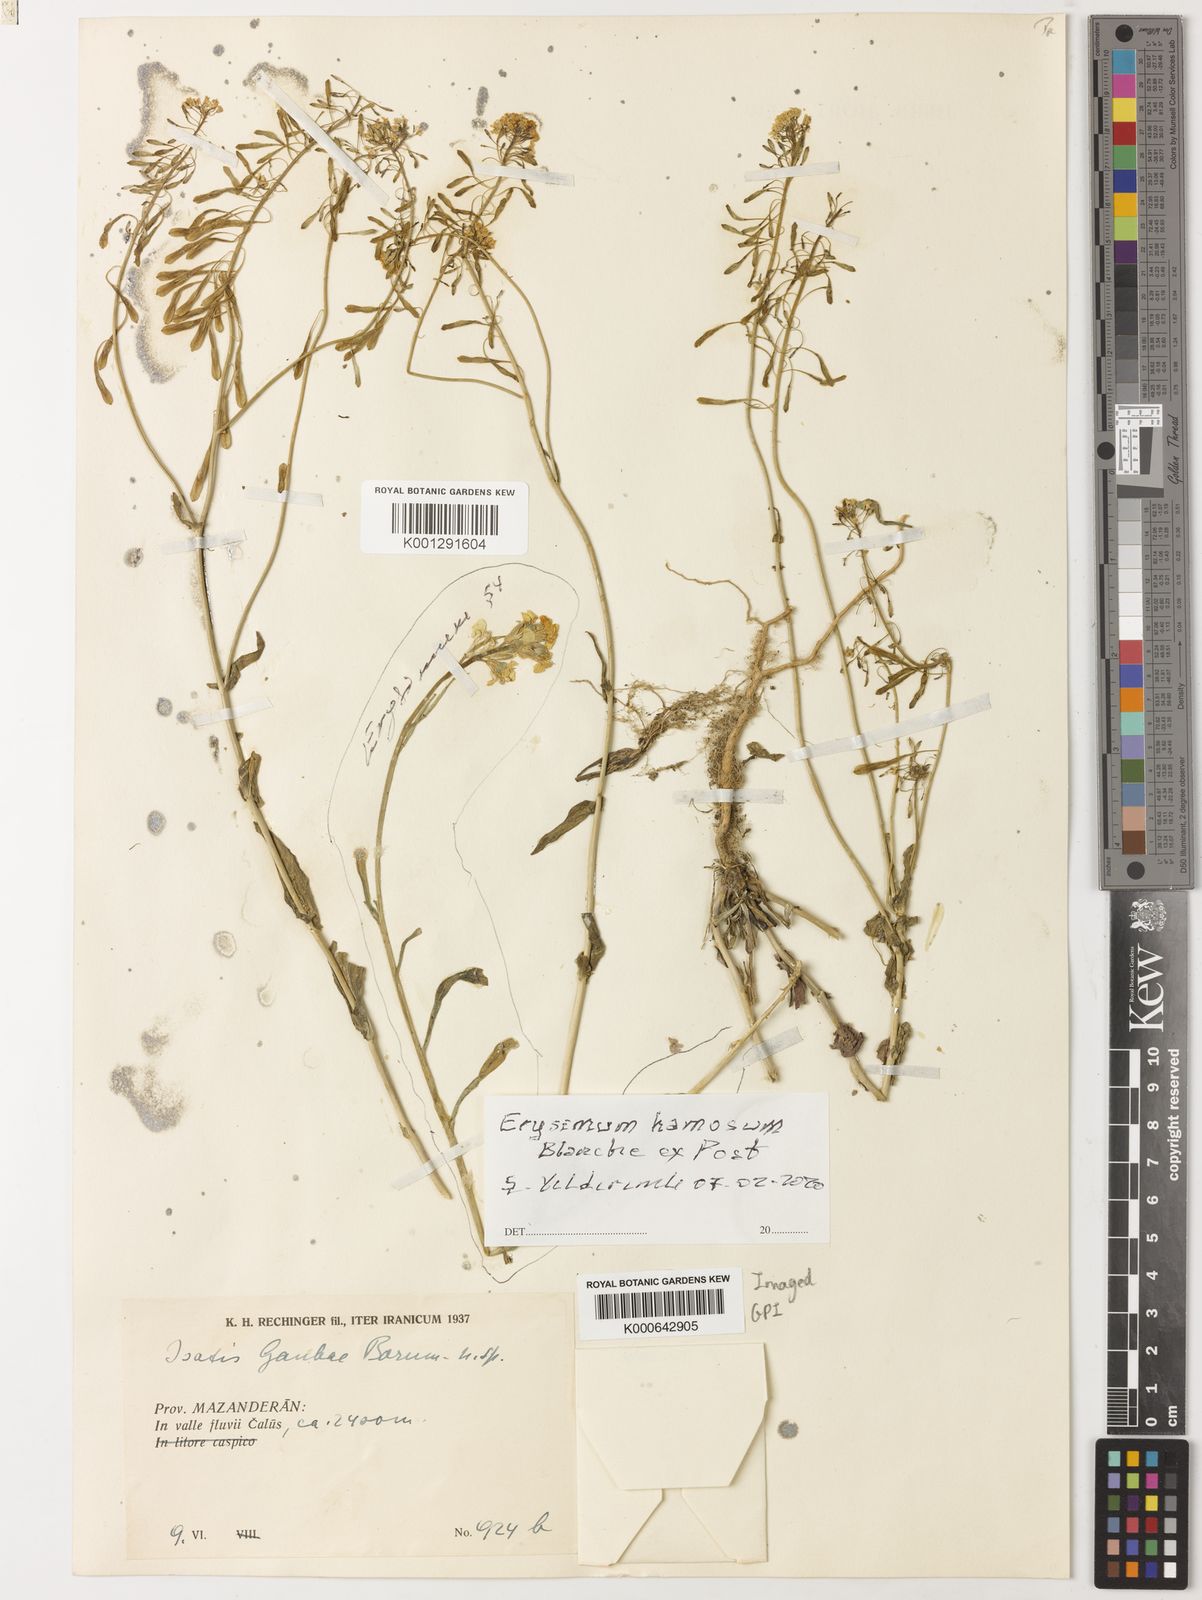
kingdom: Plantae
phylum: Tracheophyta
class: Magnoliopsida
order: Brassicales
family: Brassicaceae
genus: Erysimum
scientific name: Erysimum oleifolium
